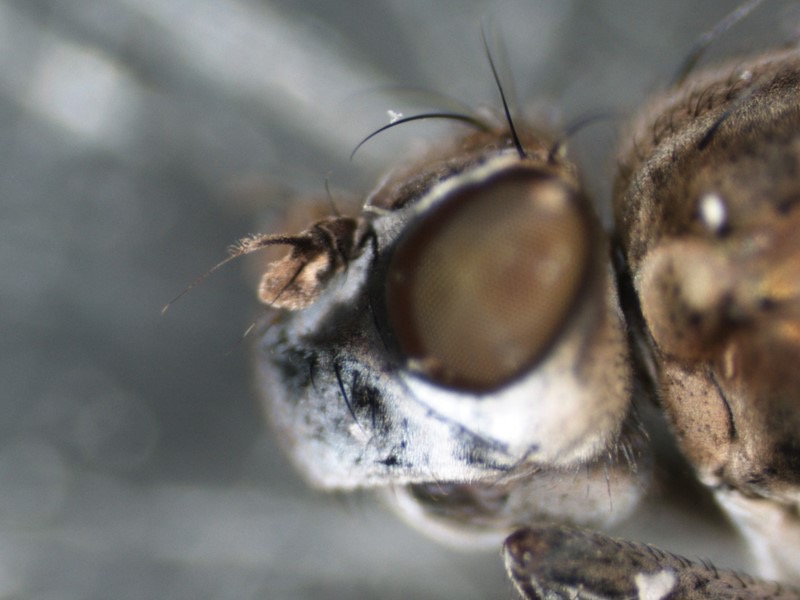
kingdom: Animalia
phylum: Arthropoda
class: Insecta
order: Diptera
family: Ephydridae
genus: Setacera
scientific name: Setacera aurata
